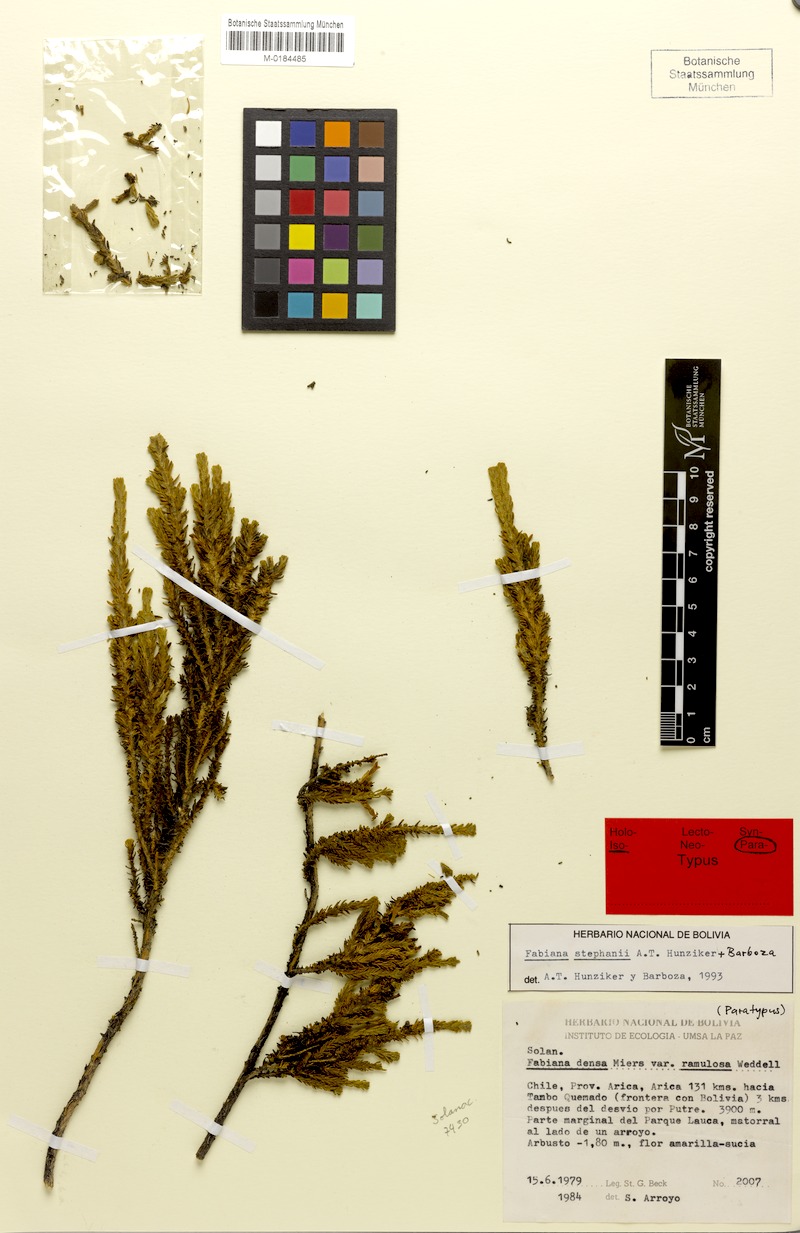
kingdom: Plantae
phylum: Tracheophyta
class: Magnoliopsida
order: Solanales
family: Solanaceae
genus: Fabiana
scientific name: Fabiana stephanii
